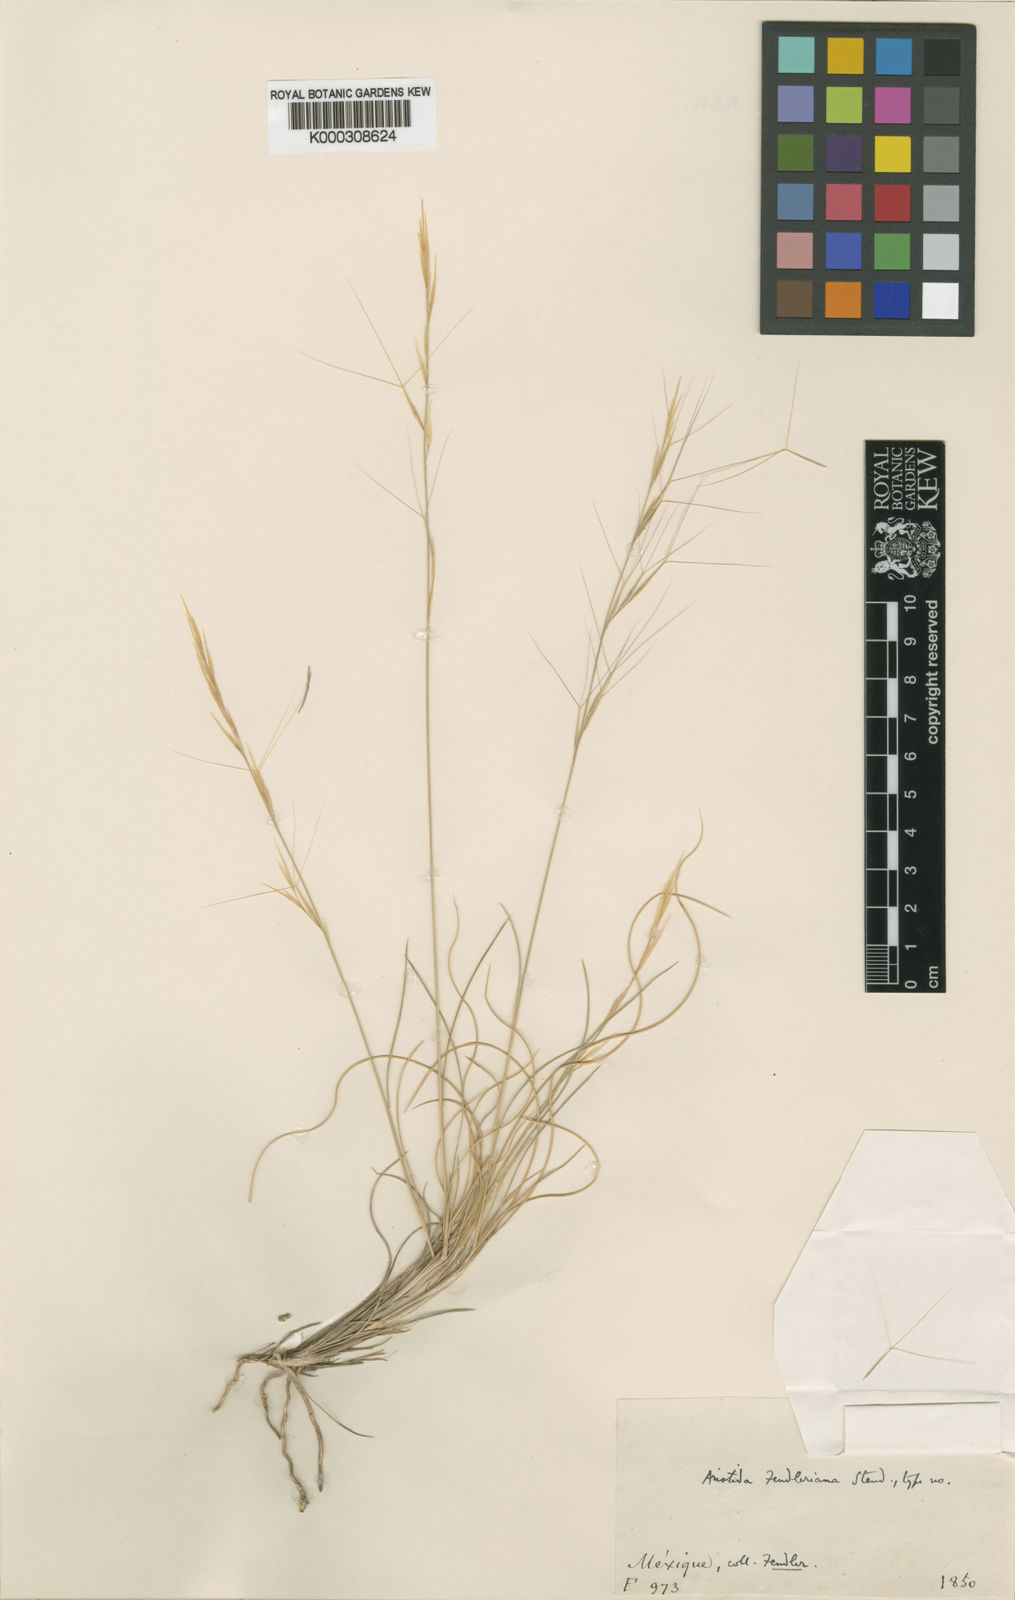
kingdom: Plantae
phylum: Tracheophyta
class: Liliopsida
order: Poales
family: Poaceae
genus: Aristida
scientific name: Aristida purpurea
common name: Purple threeawn
